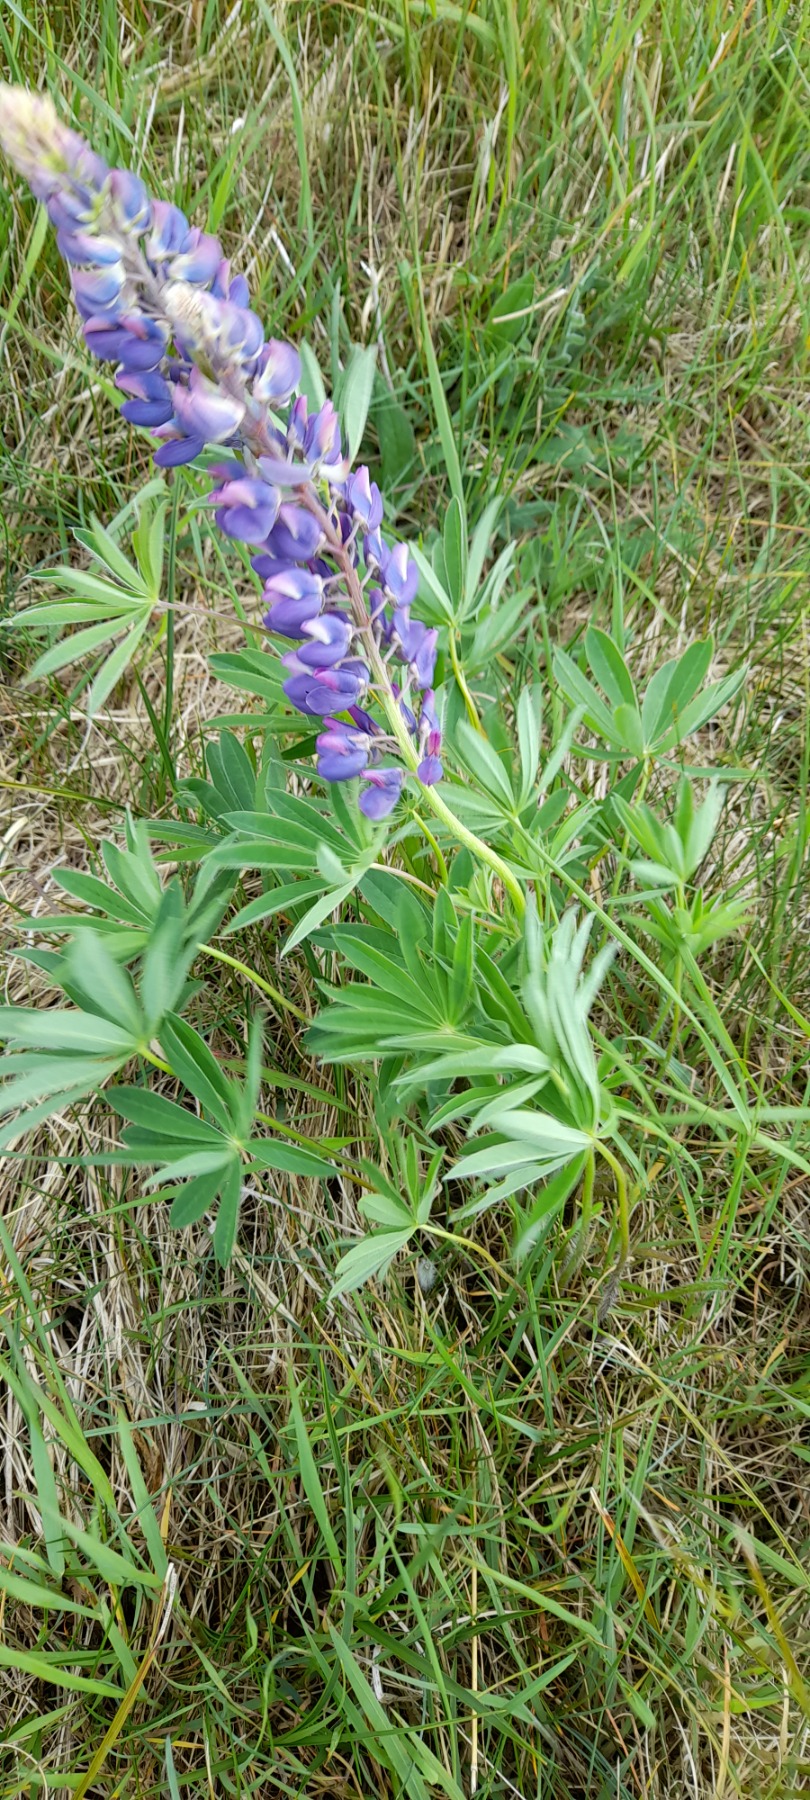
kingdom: Plantae
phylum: Tracheophyta
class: Magnoliopsida
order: Fabales
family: Fabaceae
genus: Lupinus
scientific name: Lupinus polyphyllus
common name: Mangebladet lupin
